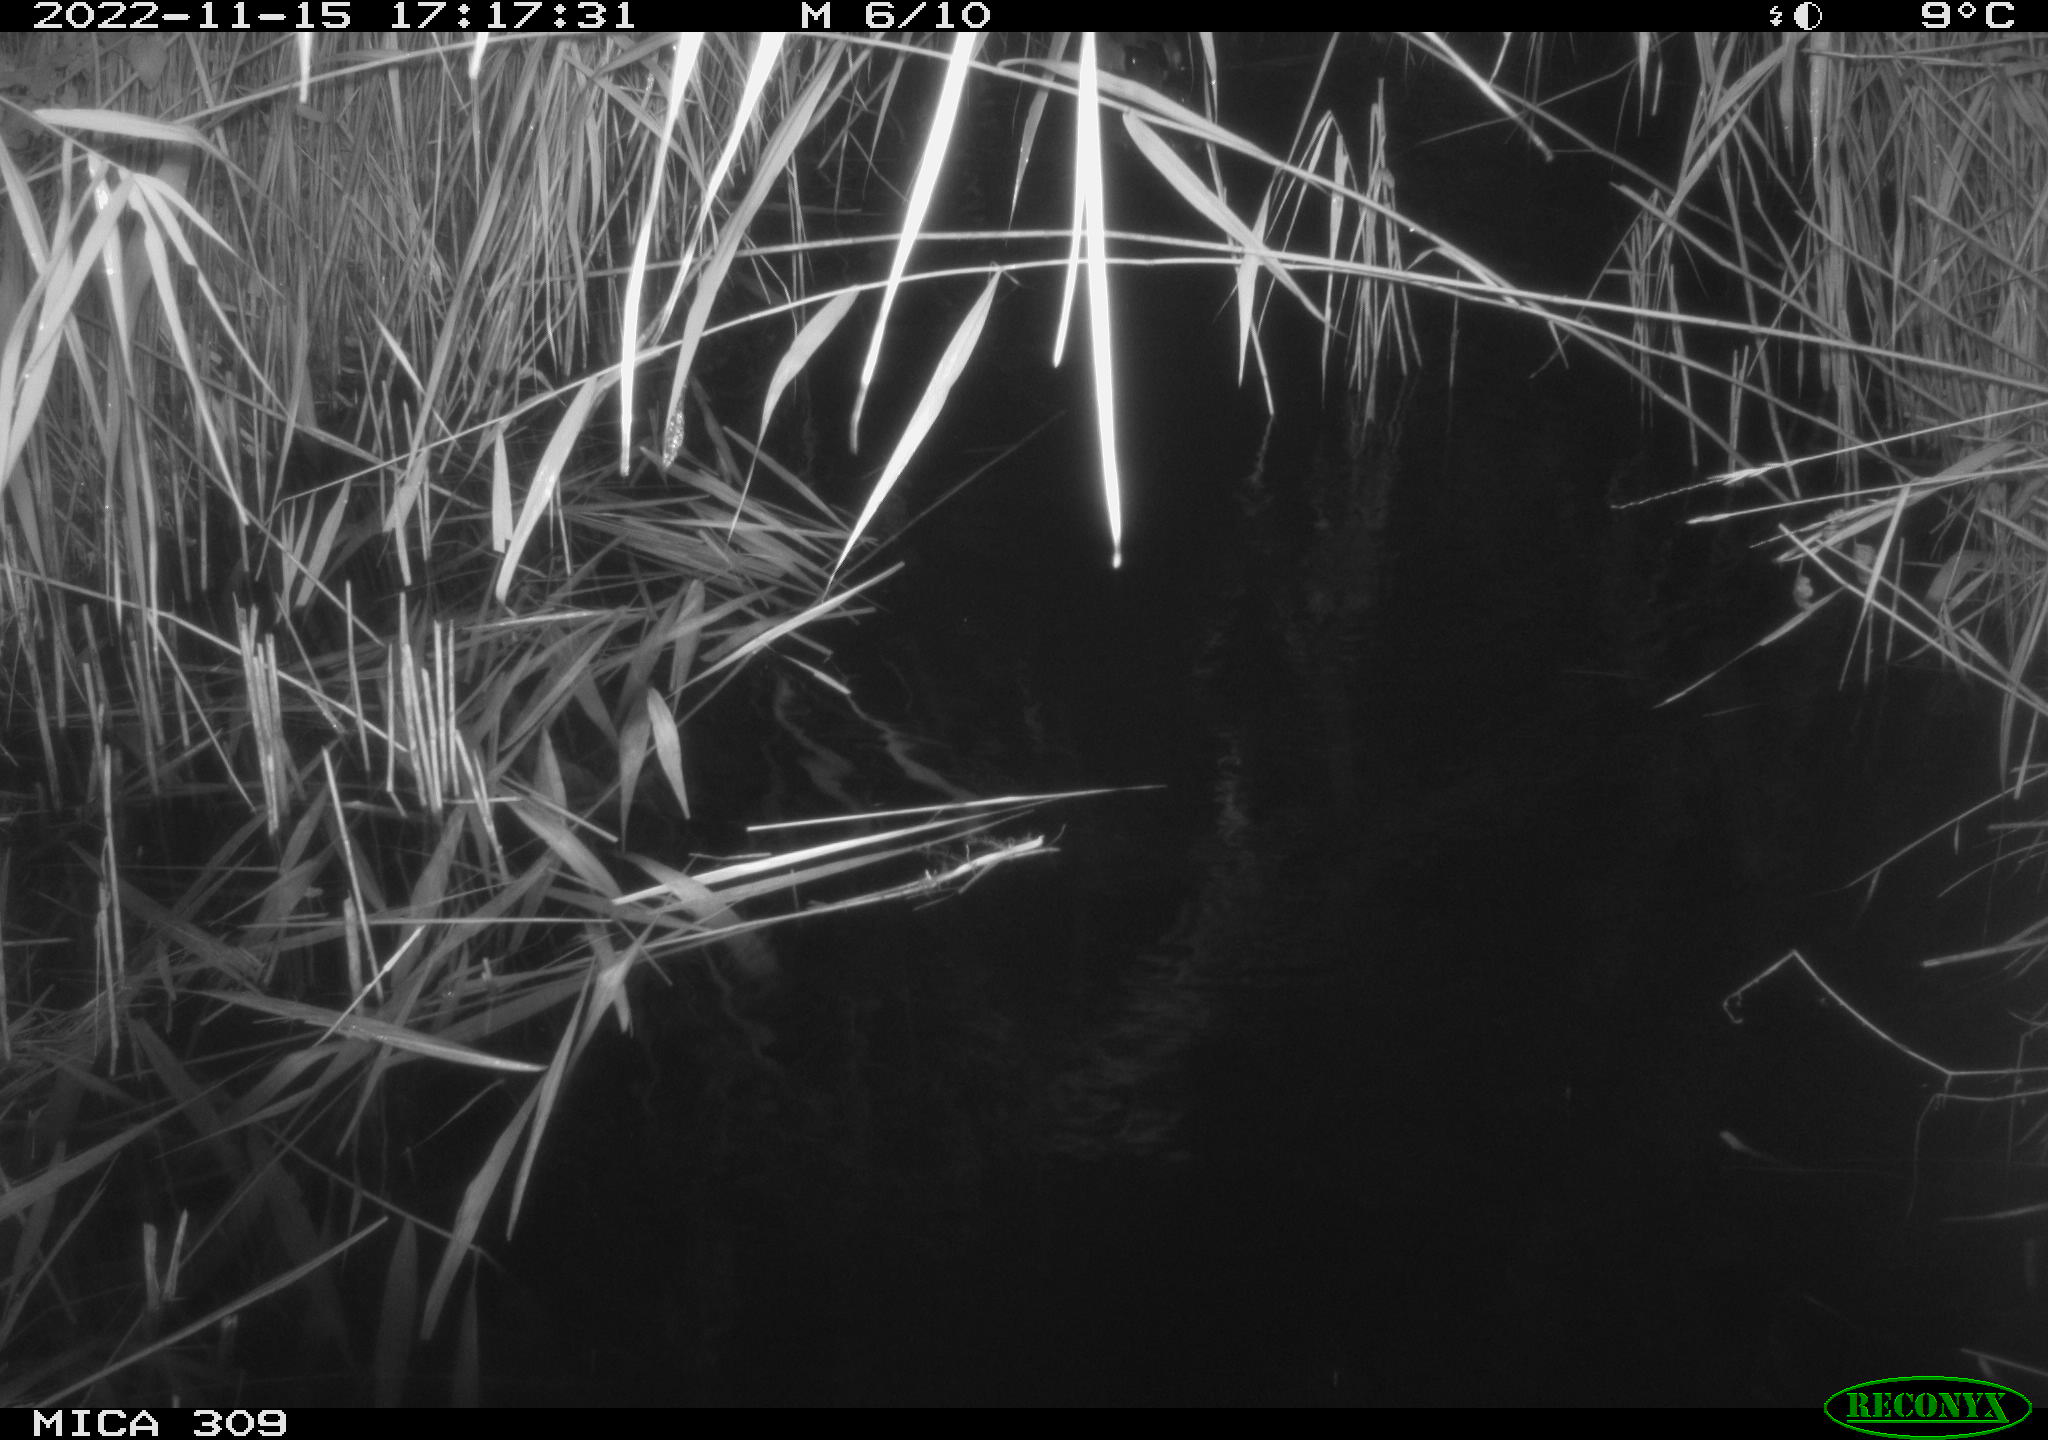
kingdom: Animalia
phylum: Chordata
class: Aves
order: Anseriformes
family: Anatidae
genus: Anas
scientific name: Anas
